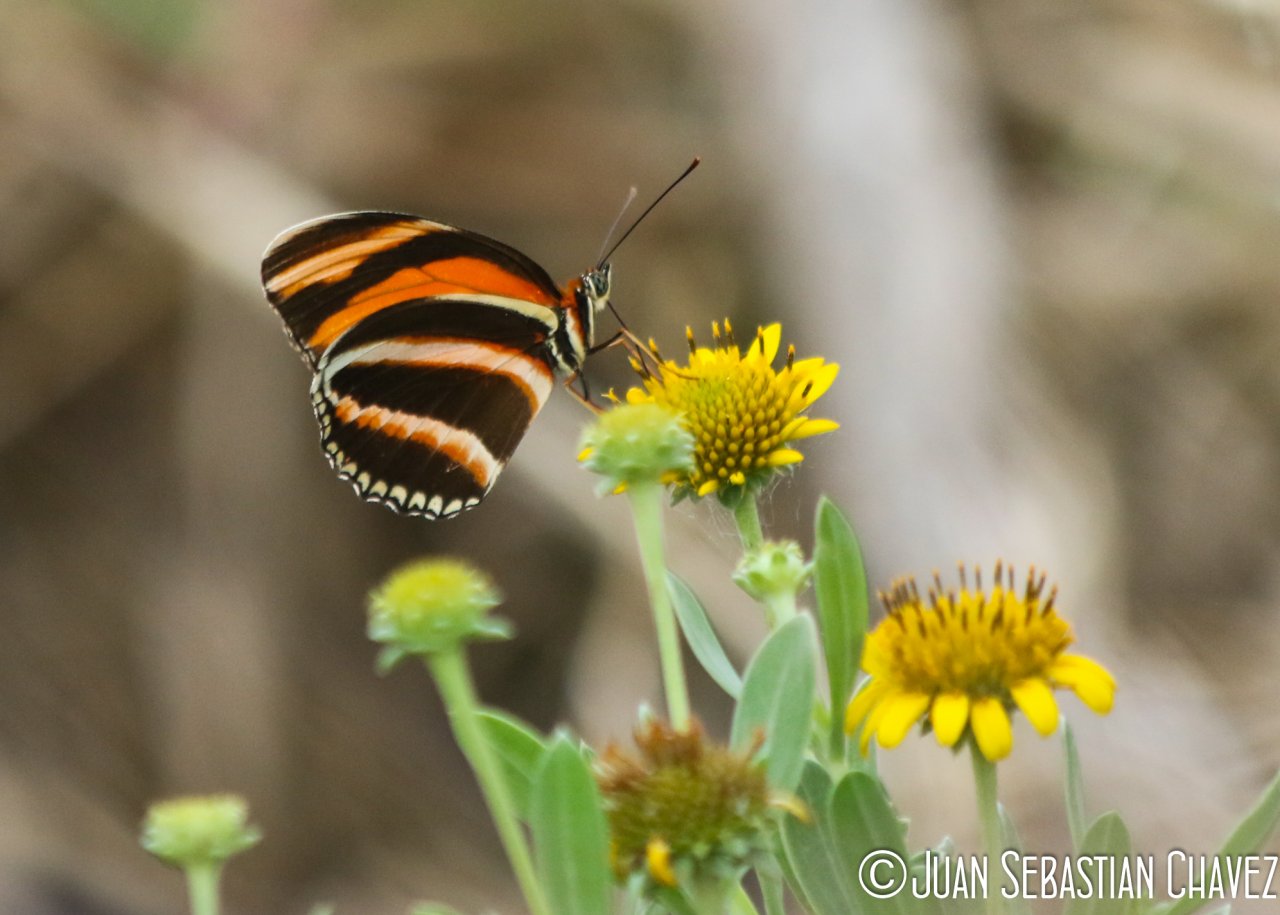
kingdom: Animalia
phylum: Arthropoda
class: Insecta
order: Lepidoptera
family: Nymphalidae
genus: Dryadula
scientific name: Dryadula phaetusa
